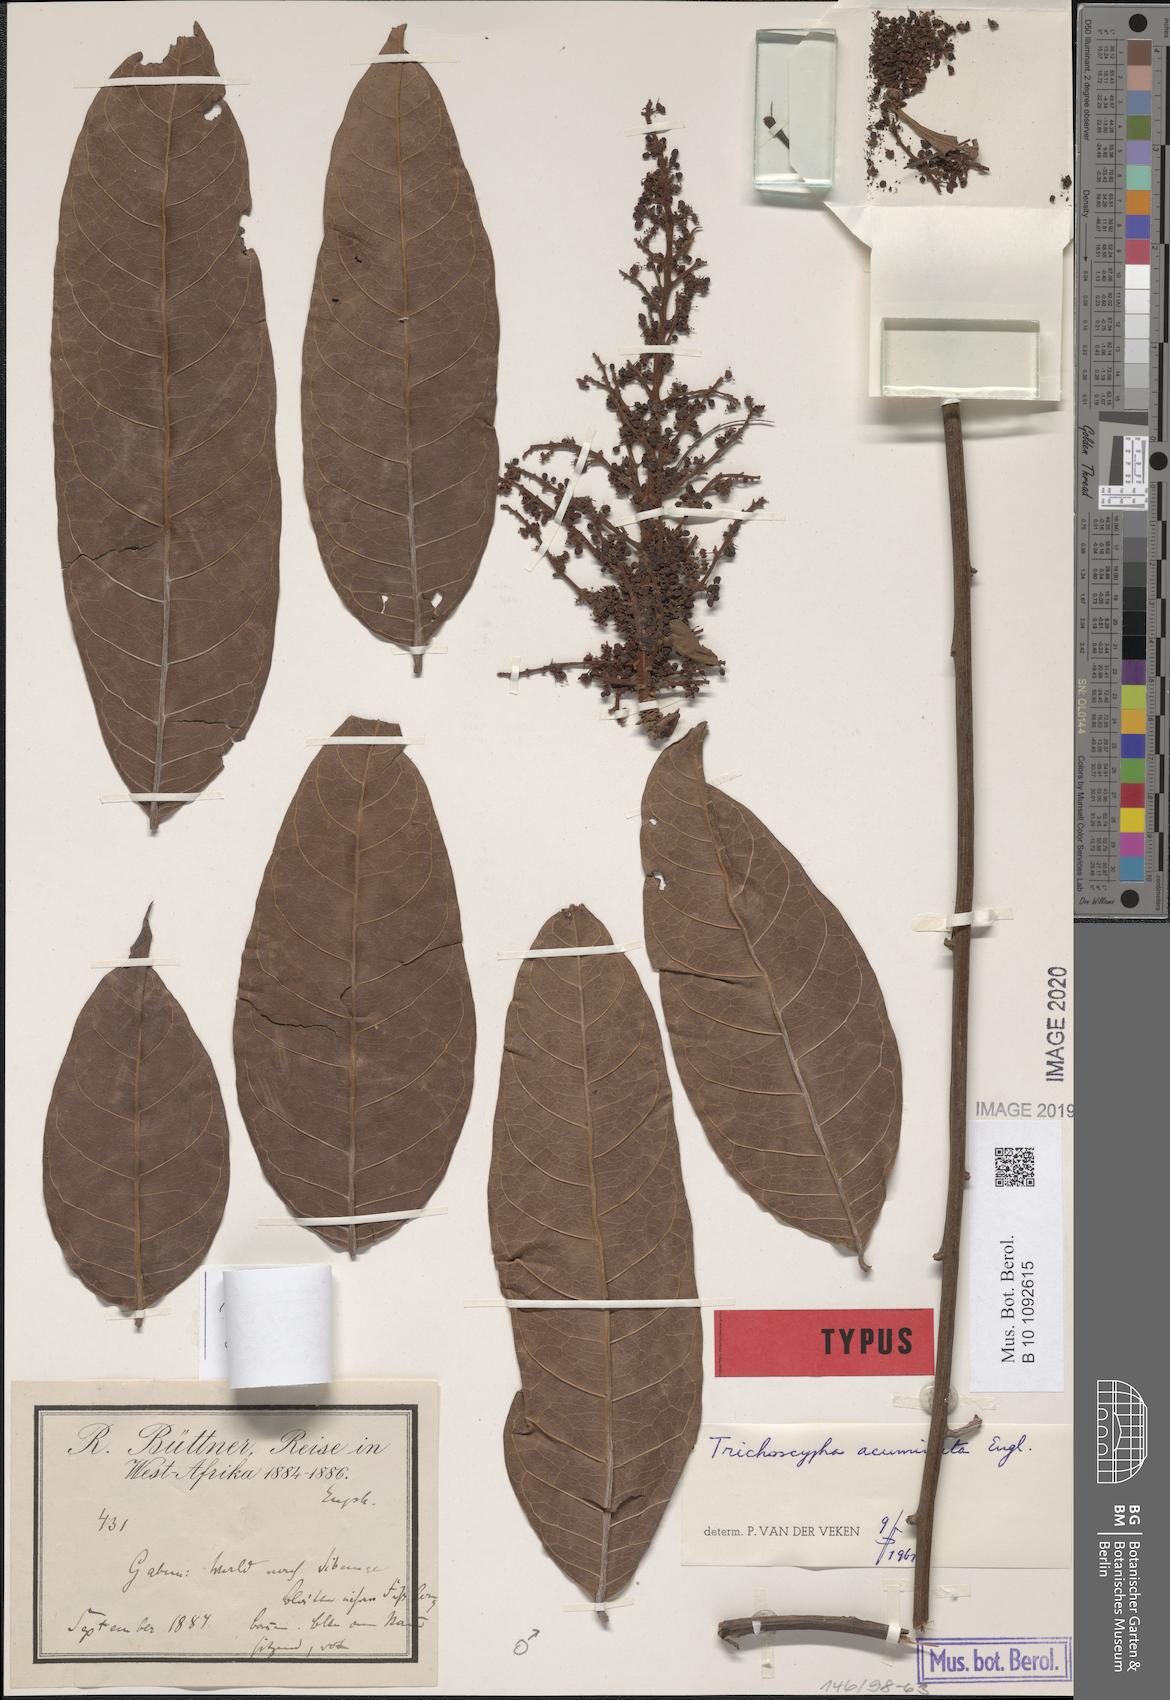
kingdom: Plantae
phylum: Tracheophyta
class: Magnoliopsida
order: Sapindales
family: Anacardiaceae
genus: Trichoscypha
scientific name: Trichoscypha acuminata
